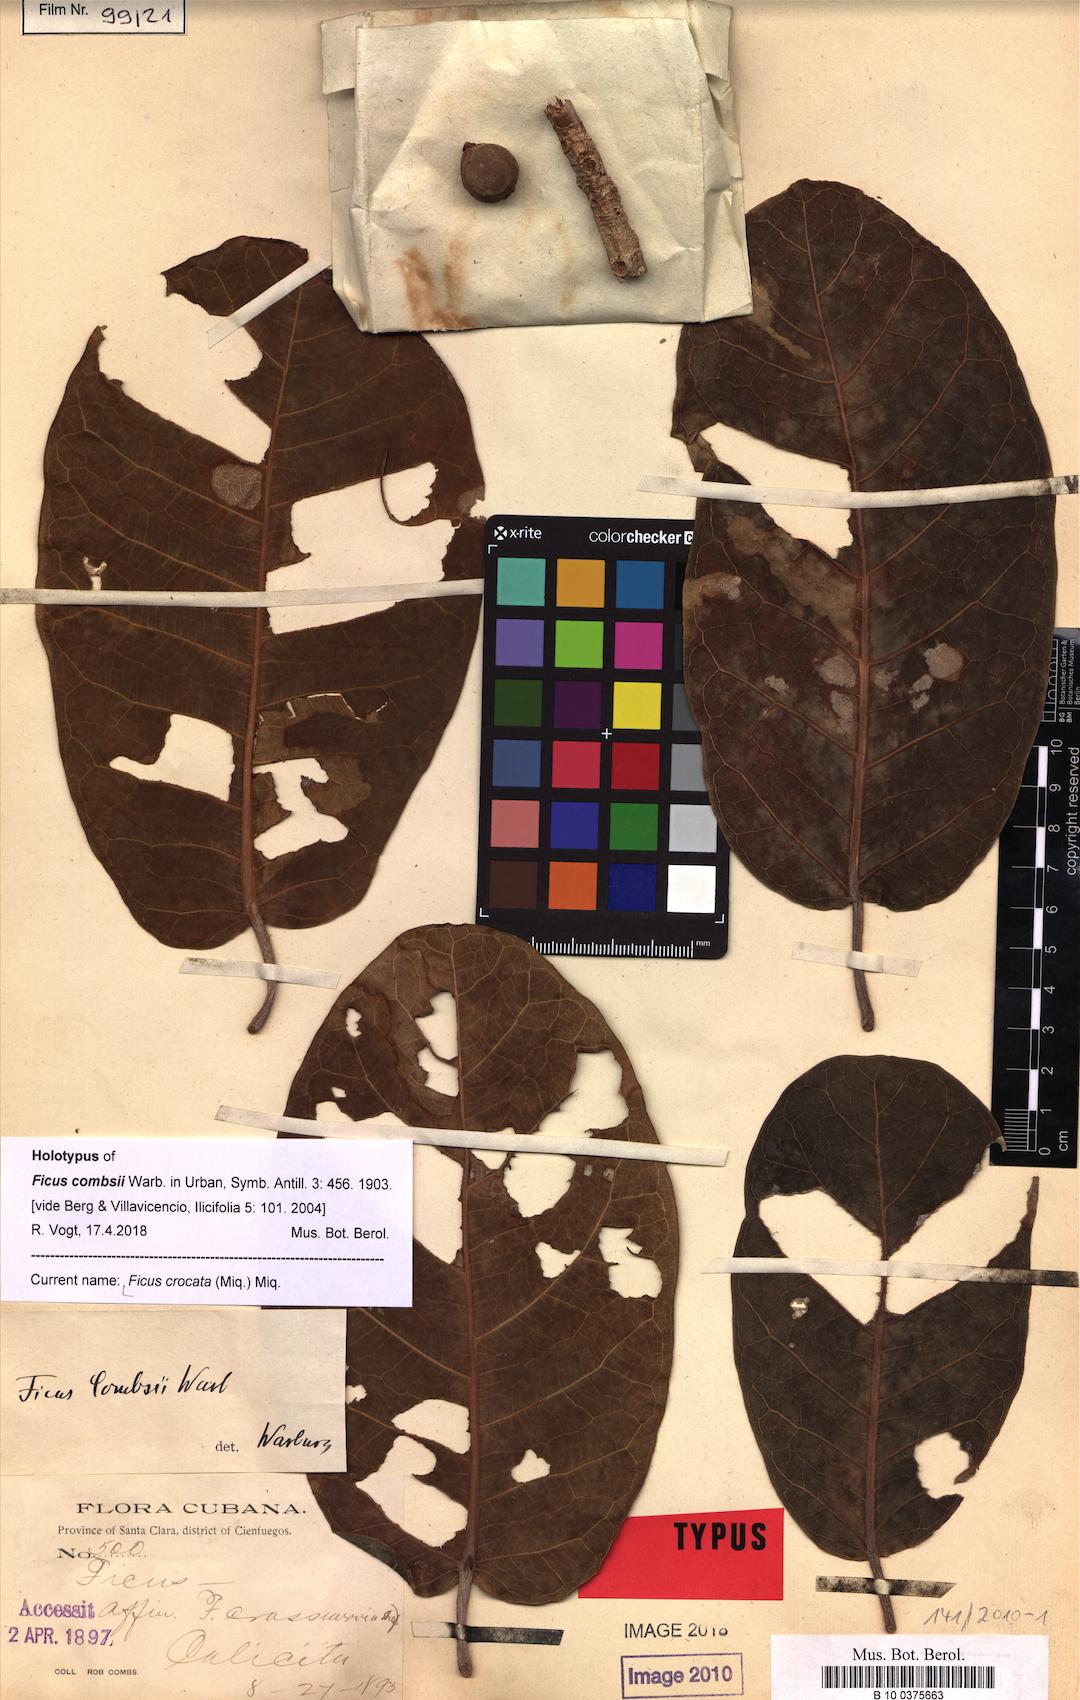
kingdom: Plantae
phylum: Tracheophyta
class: Magnoliopsida
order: Rosales
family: Moraceae
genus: Ficus
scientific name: Ficus crocata
